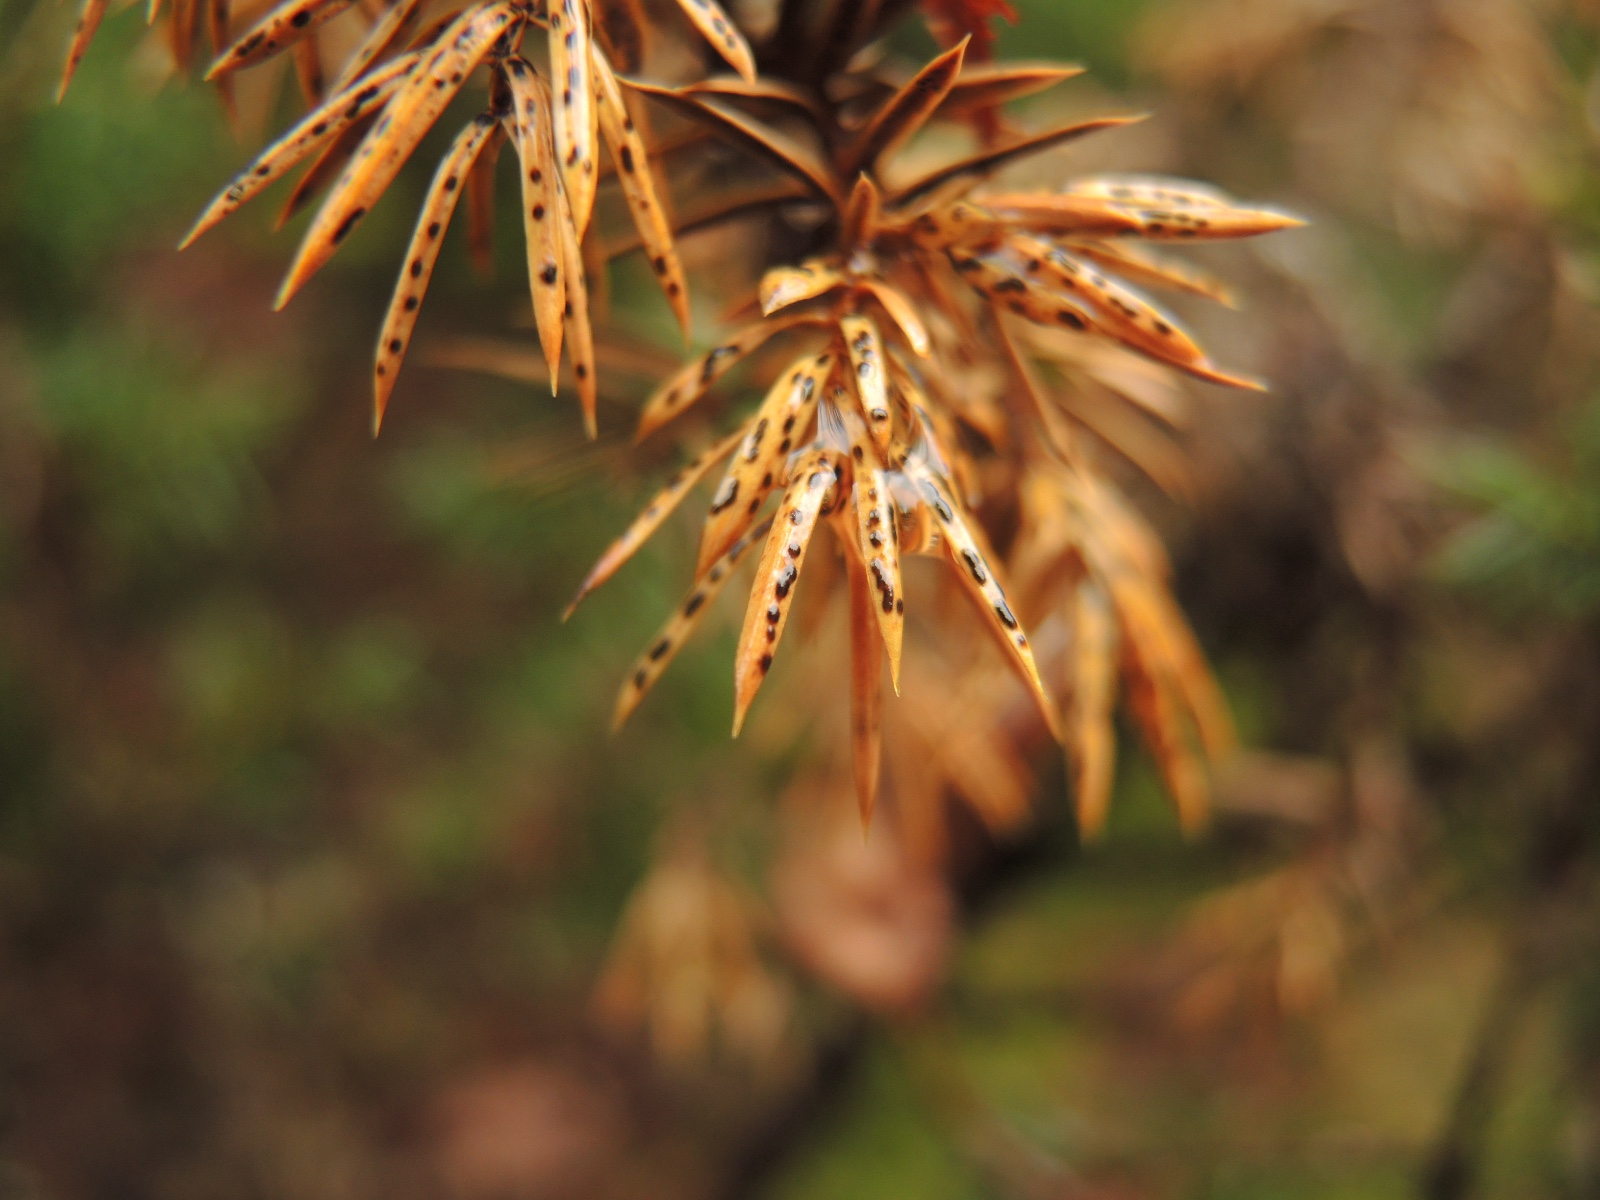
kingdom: Fungi
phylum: Ascomycota
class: Leotiomycetes
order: Rhytismatales
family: Rhytismataceae
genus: Lophodermium
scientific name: Lophodermium juniperinum
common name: ene-fureplet
